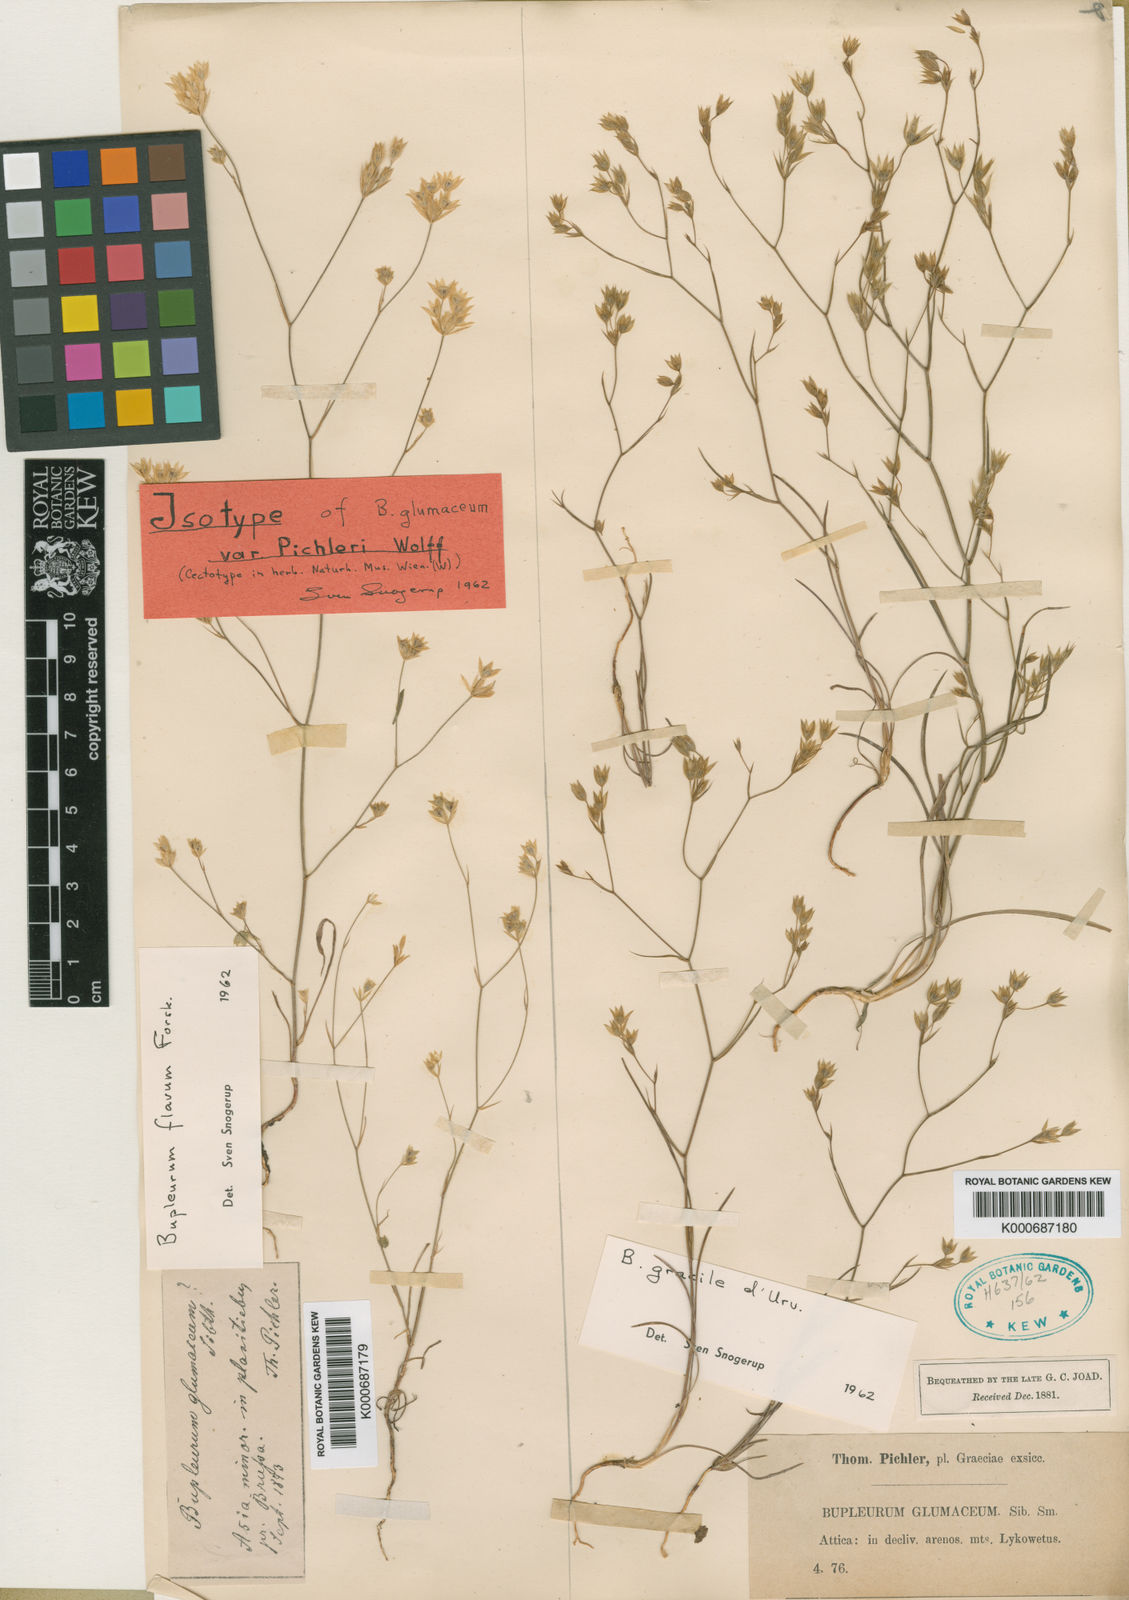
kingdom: Plantae
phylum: Tracheophyta
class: Magnoliopsida
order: Apiales
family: Apiaceae
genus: Bupleurum
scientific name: Bupleurum flavum
